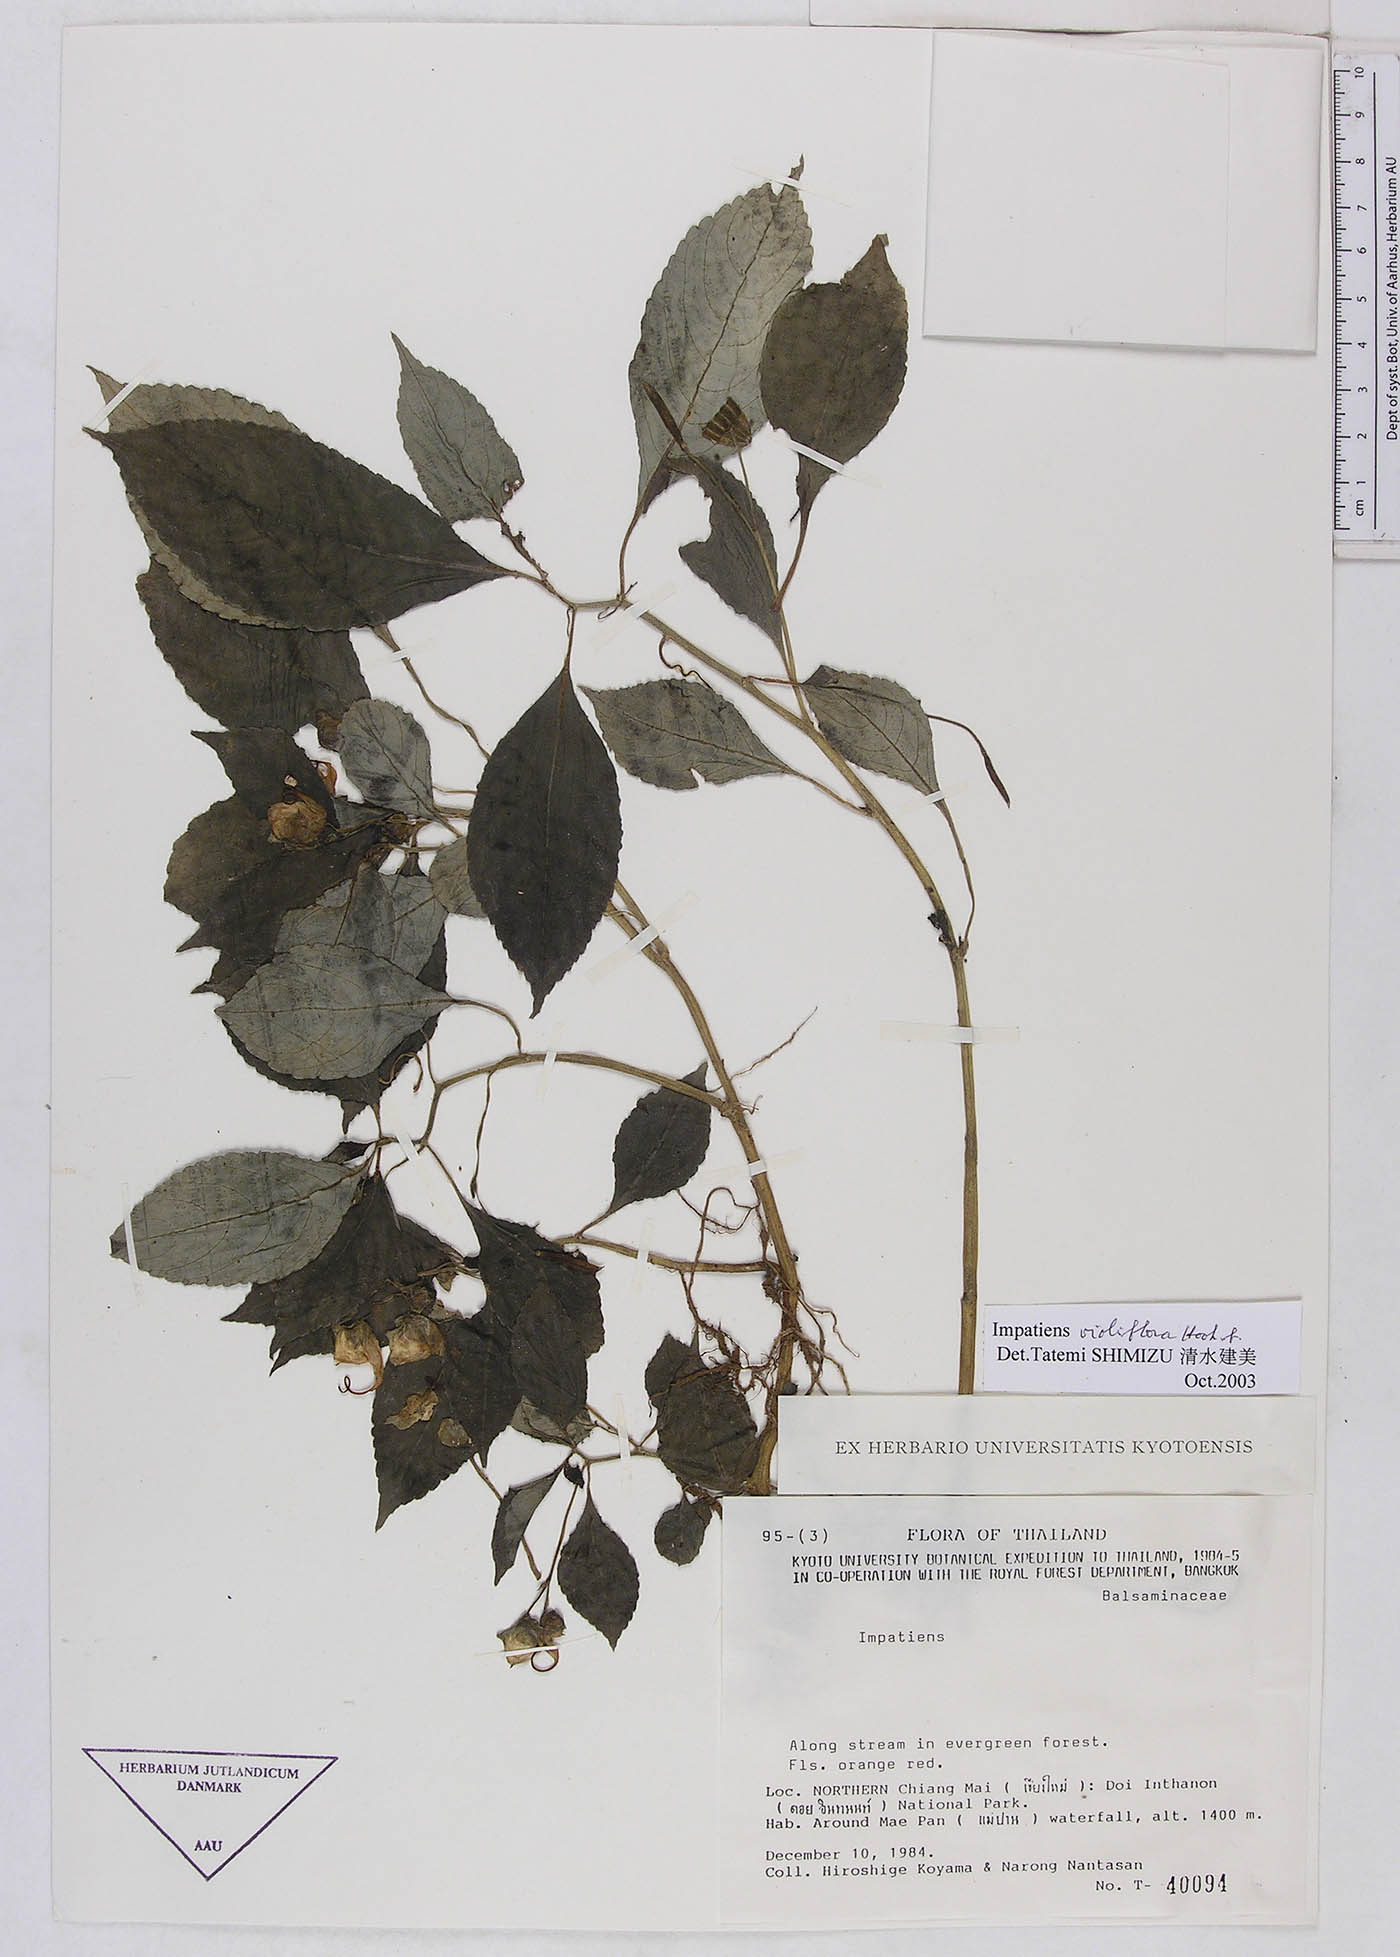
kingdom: Plantae
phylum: Tracheophyta
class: Magnoliopsida
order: Ericales
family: Balsaminaceae
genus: Impatiens
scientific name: Impatiens pulchra
